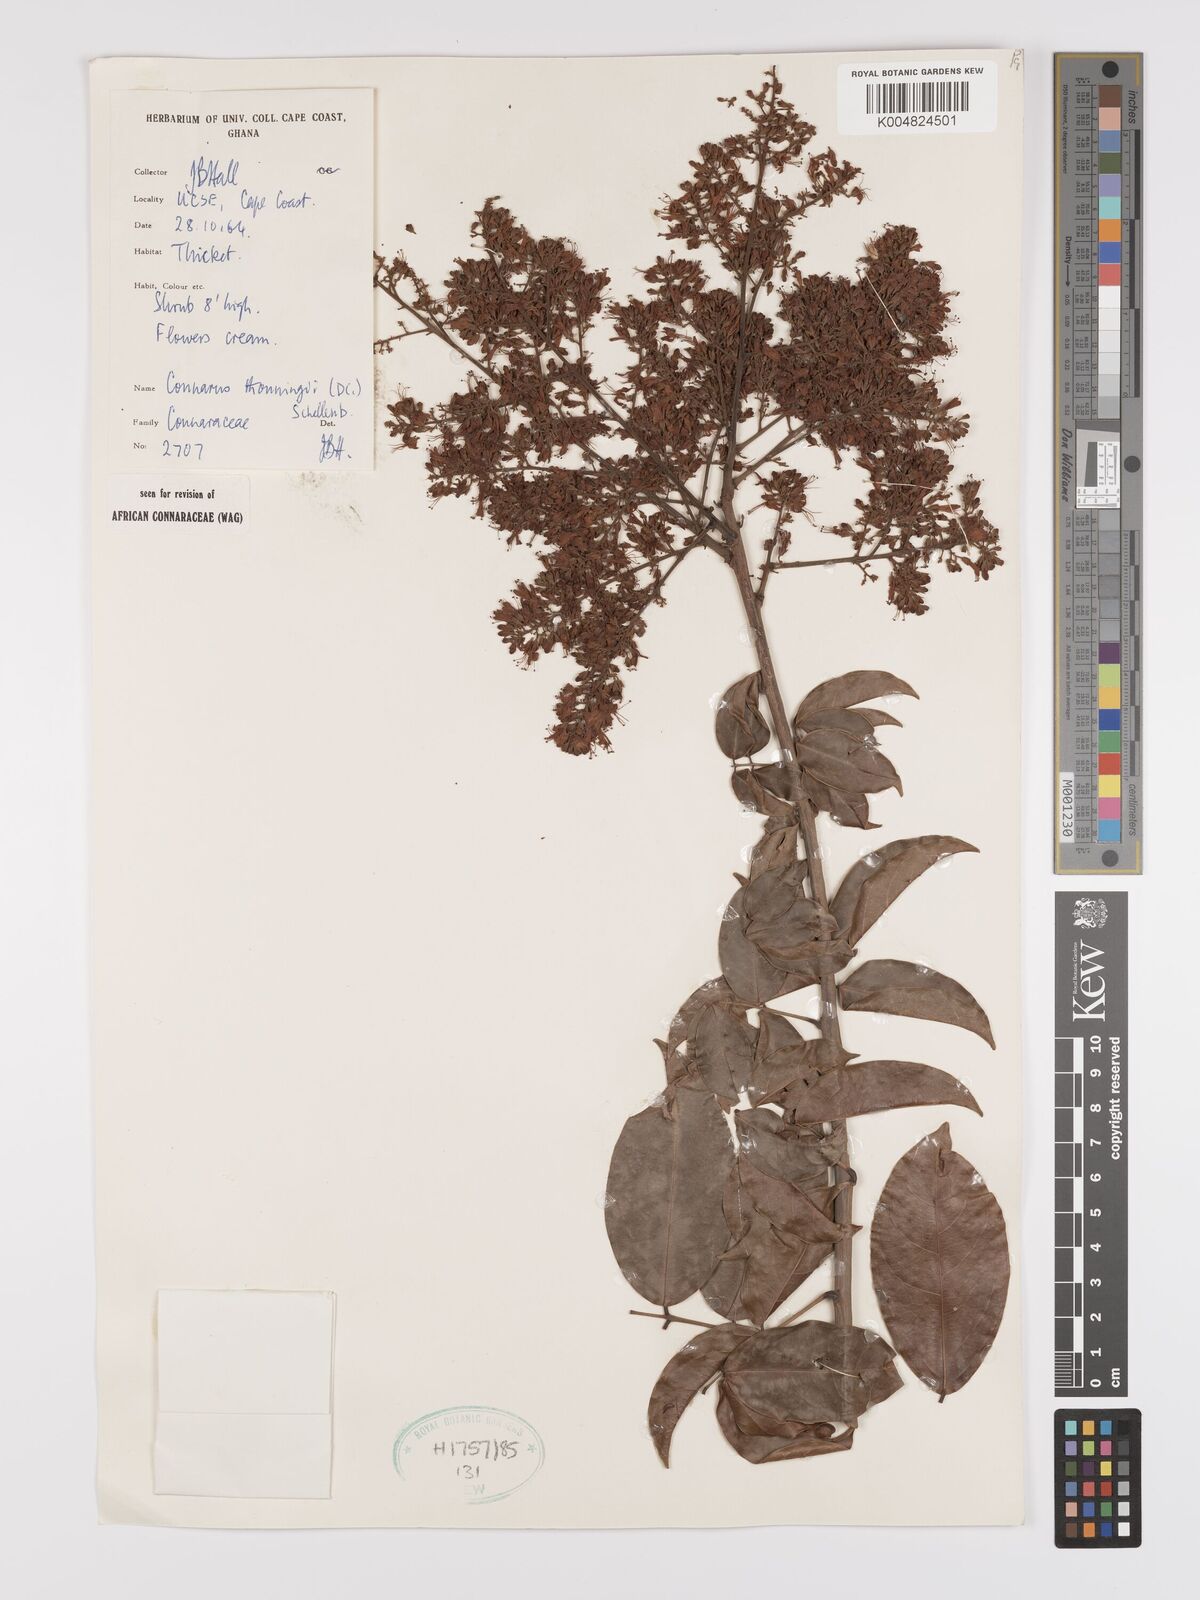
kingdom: Plantae
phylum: Tracheophyta
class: Magnoliopsida
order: Oxalidales
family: Connaraceae
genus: Connarus
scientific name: Connarus thonningii
